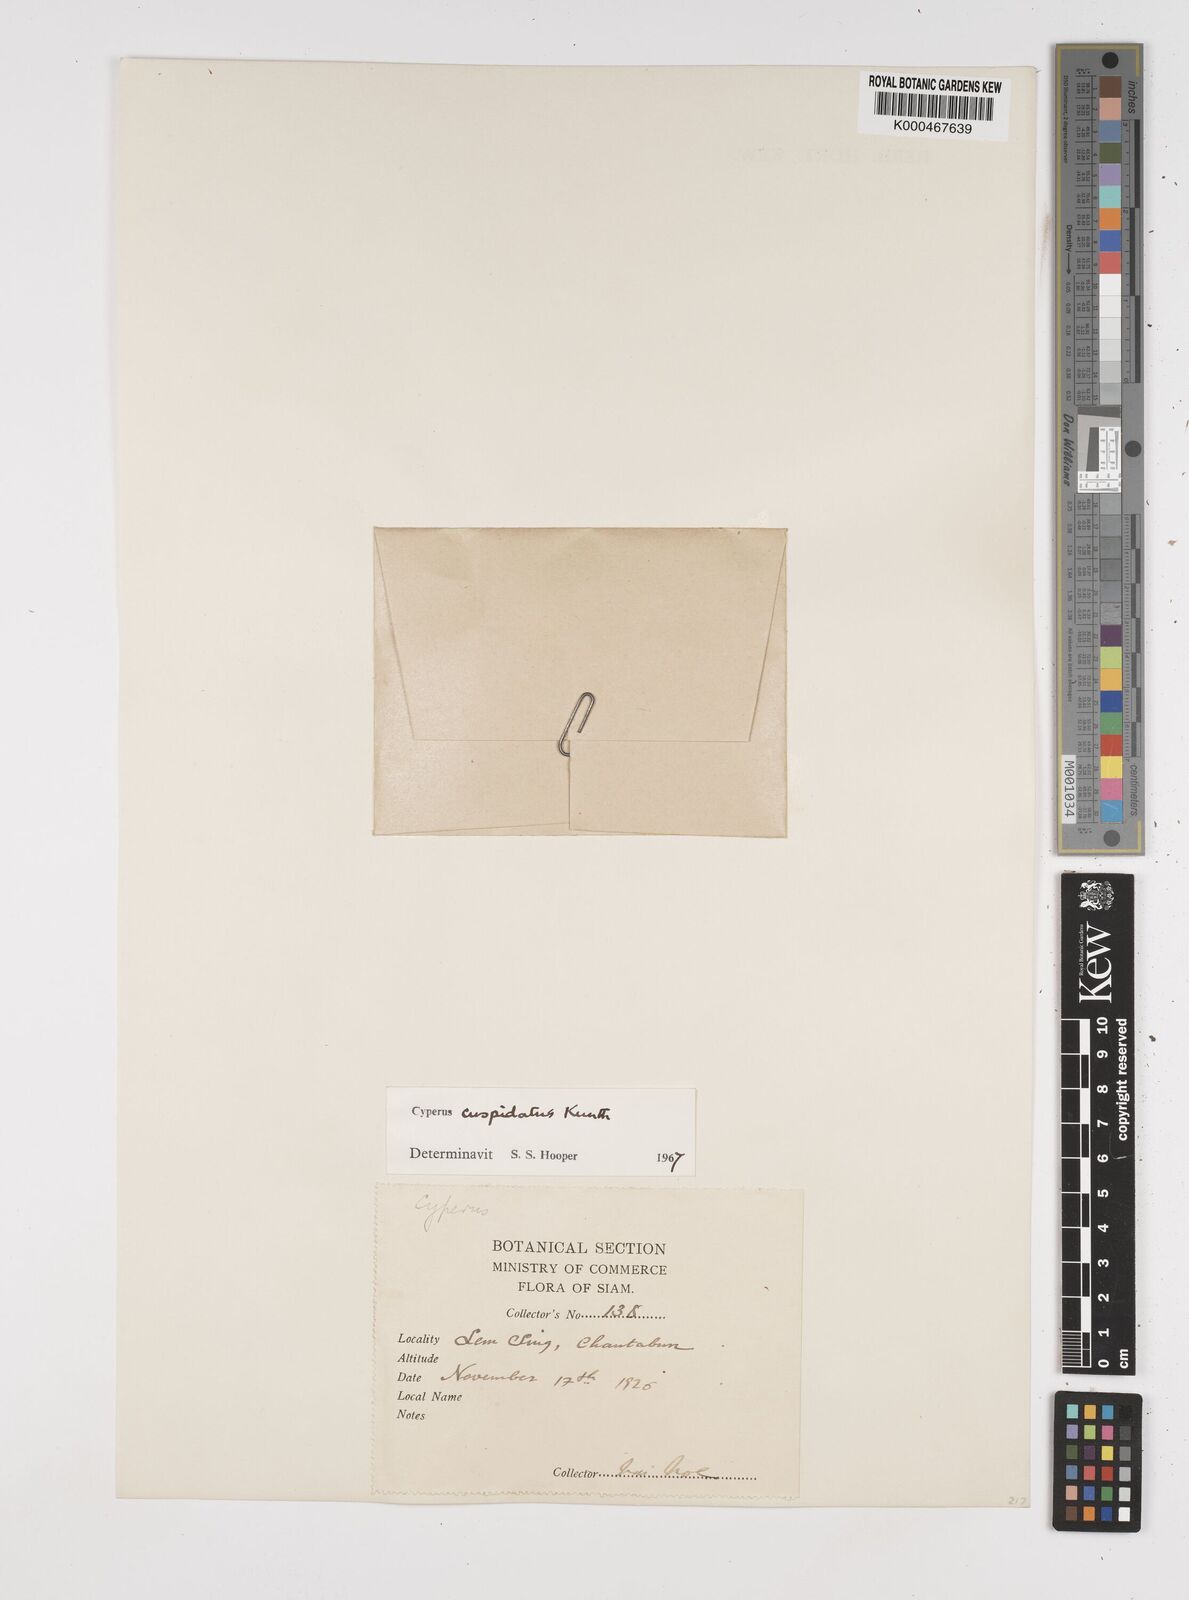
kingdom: Plantae
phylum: Tracheophyta
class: Liliopsida
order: Poales
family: Cyperaceae
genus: Cyperus
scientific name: Cyperus cuspidatus
